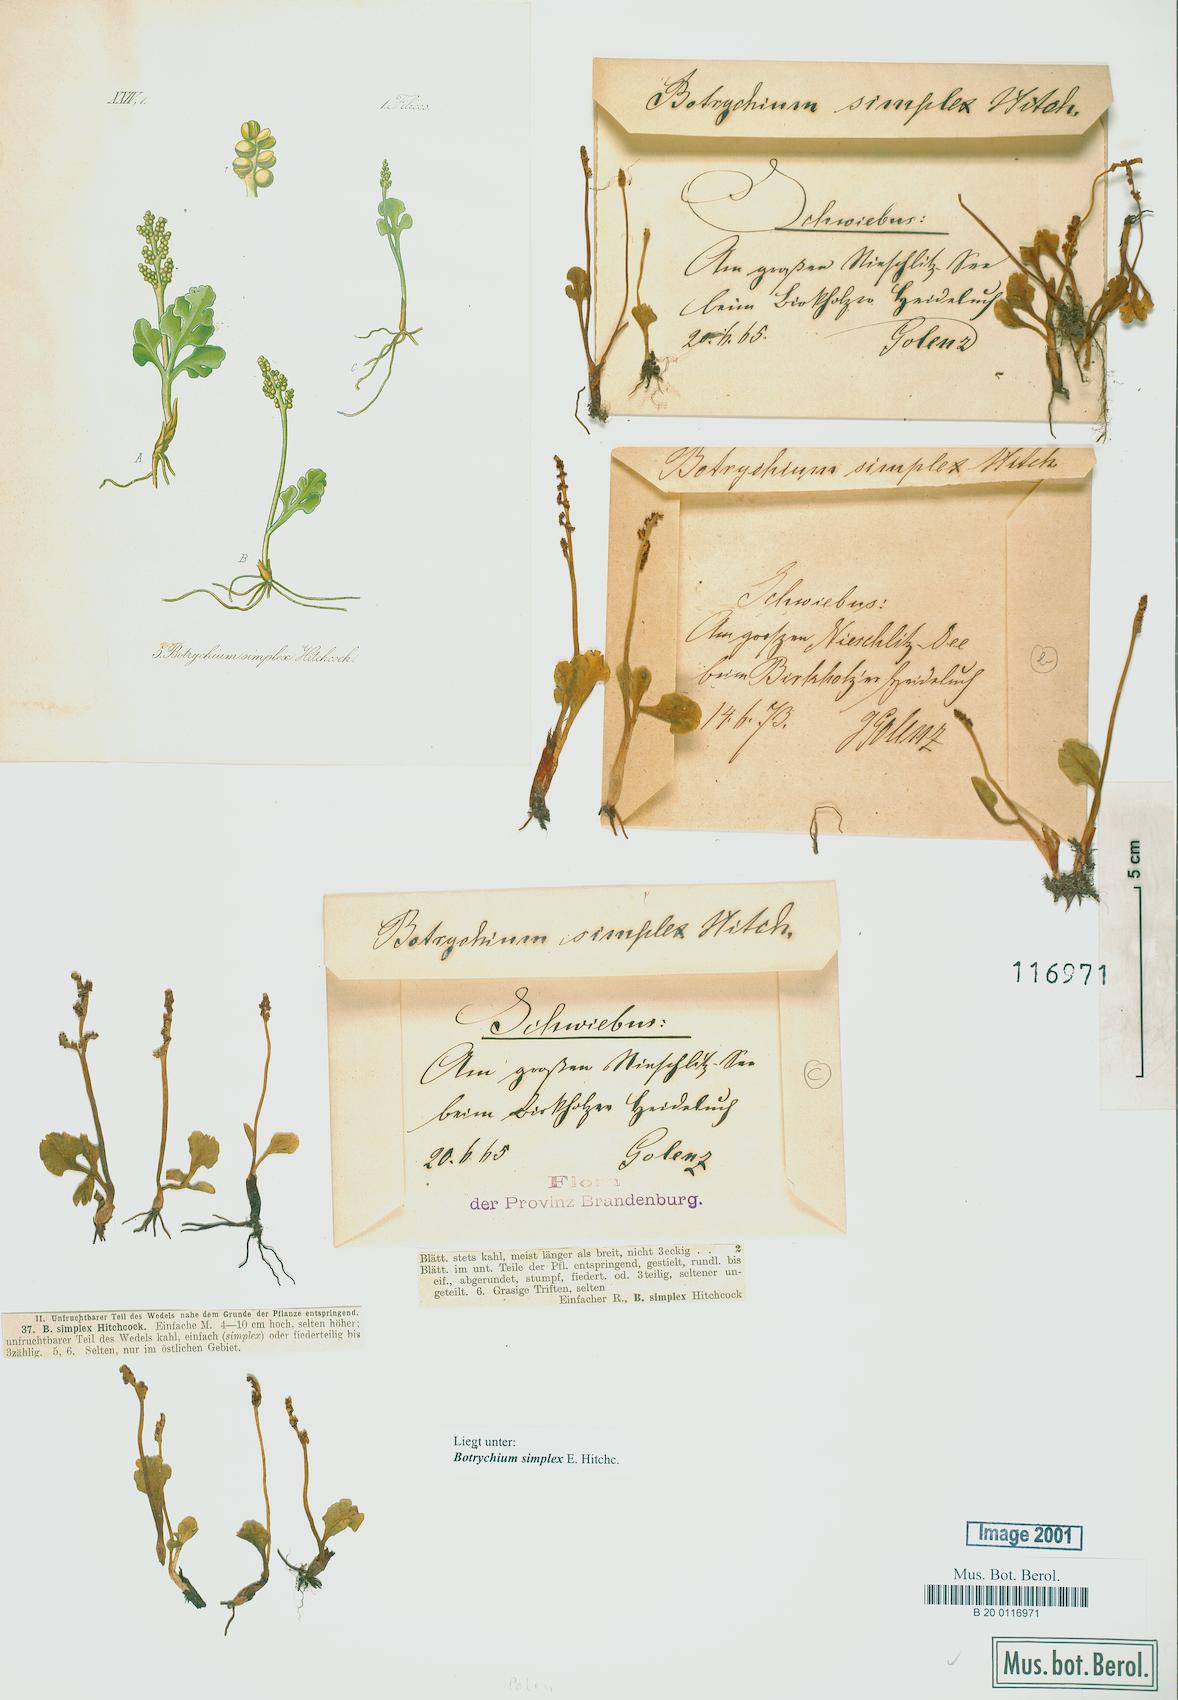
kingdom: Plantae
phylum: Tracheophyta
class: Polypodiopsida
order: Ophioglossales
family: Ophioglossaceae
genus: Botrychium
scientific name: Botrychium simplex
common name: Least moonwort
